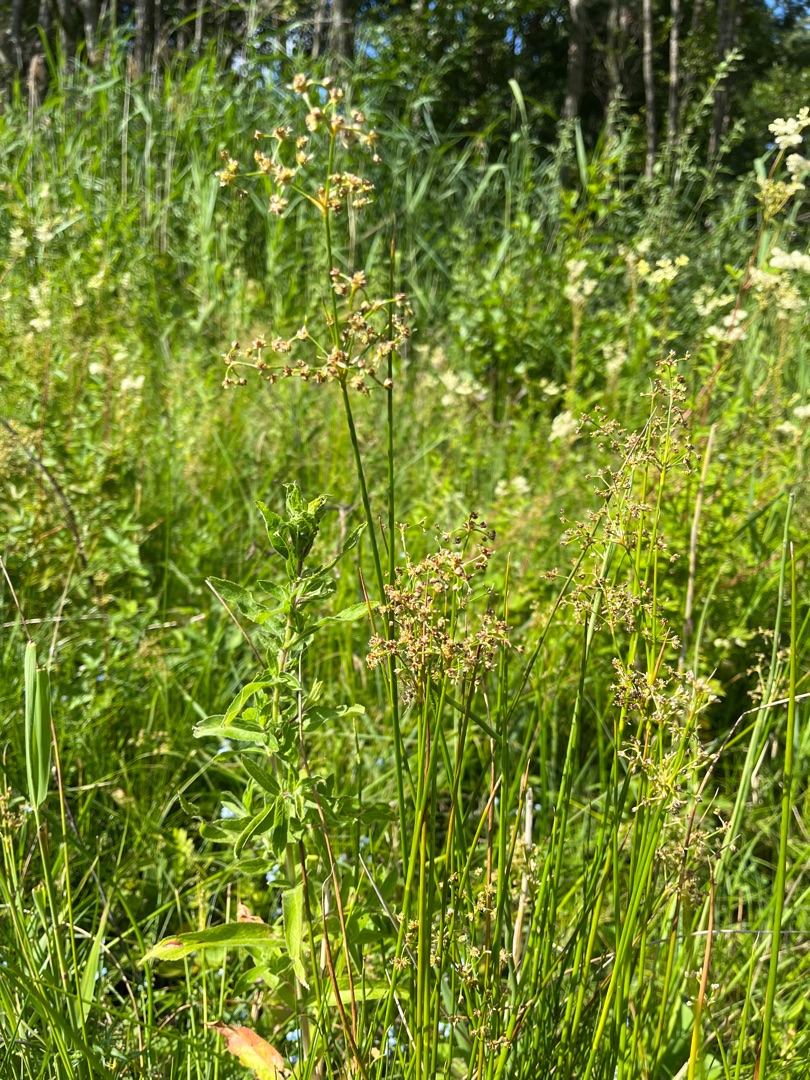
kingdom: Plantae
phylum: Tracheophyta
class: Liliopsida
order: Poales
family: Juncaceae
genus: Juncus
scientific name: Juncus subnodulosus
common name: Butblomstret siv
